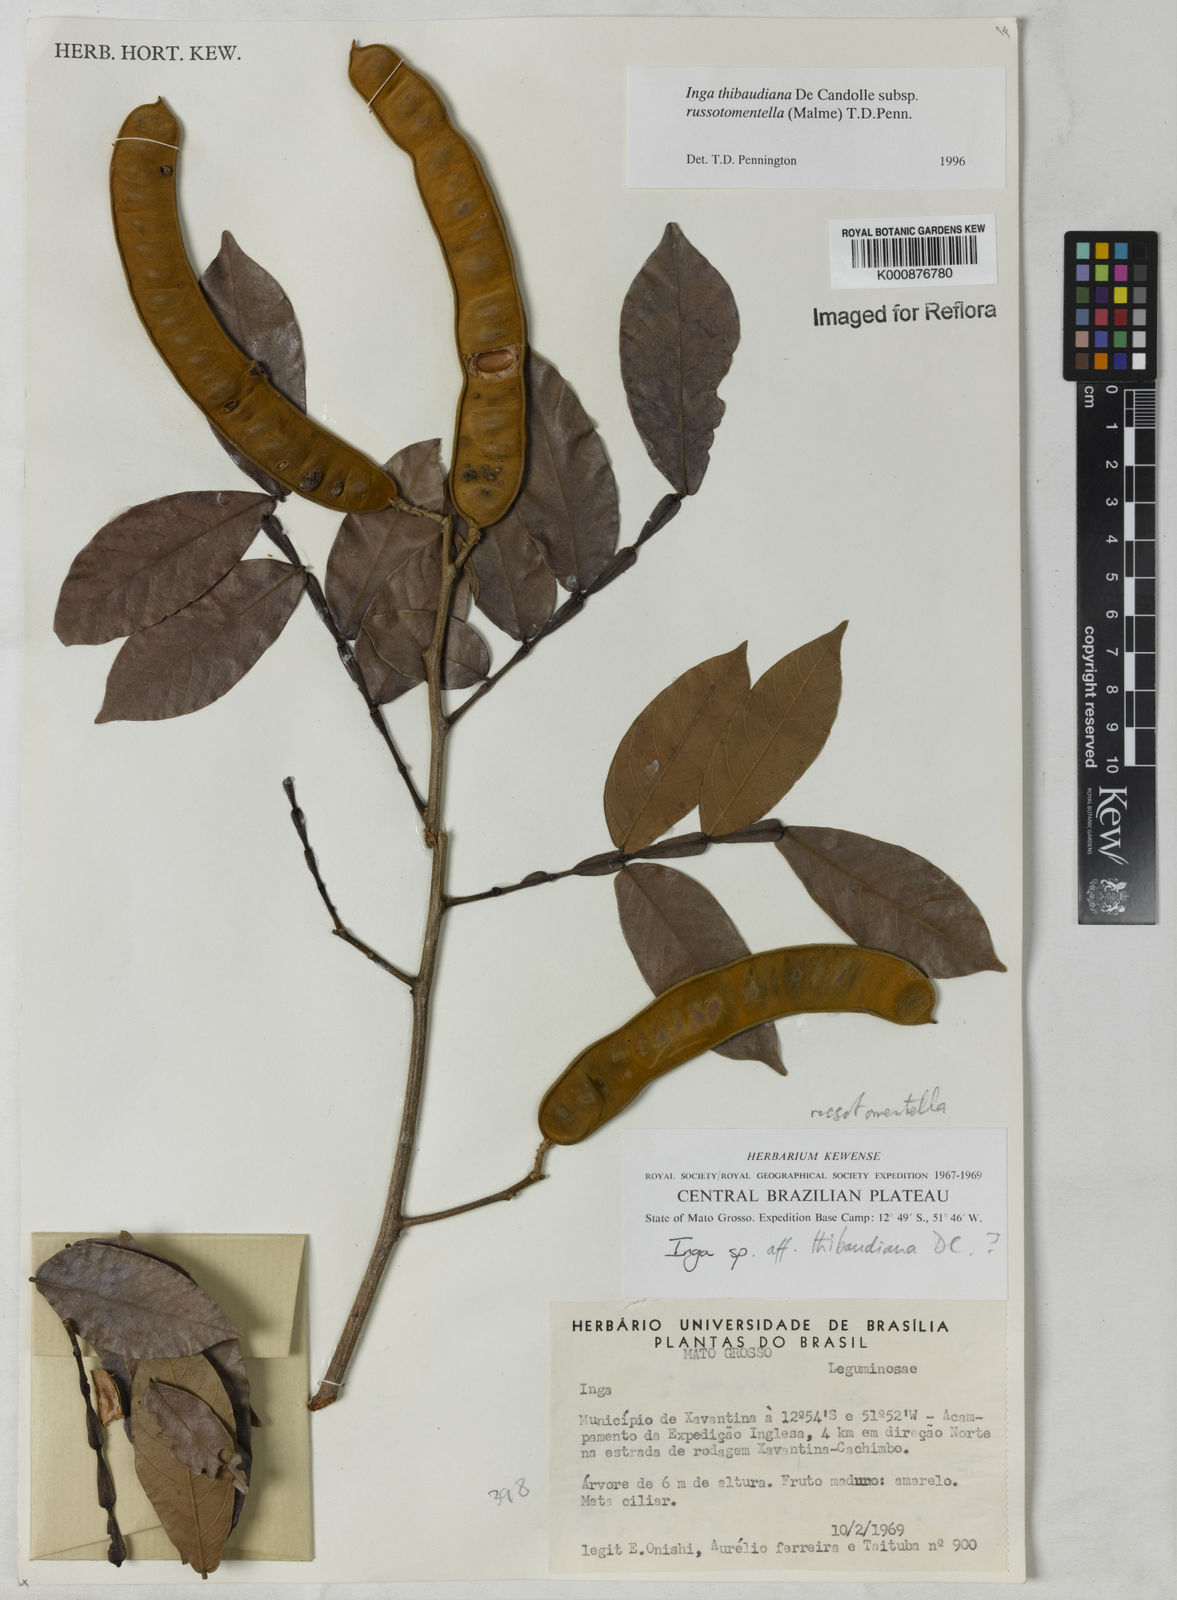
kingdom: Plantae
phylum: Tracheophyta
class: Magnoliopsida
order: Fabales
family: Fabaceae
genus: Inga
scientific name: Inga thibaudiana
